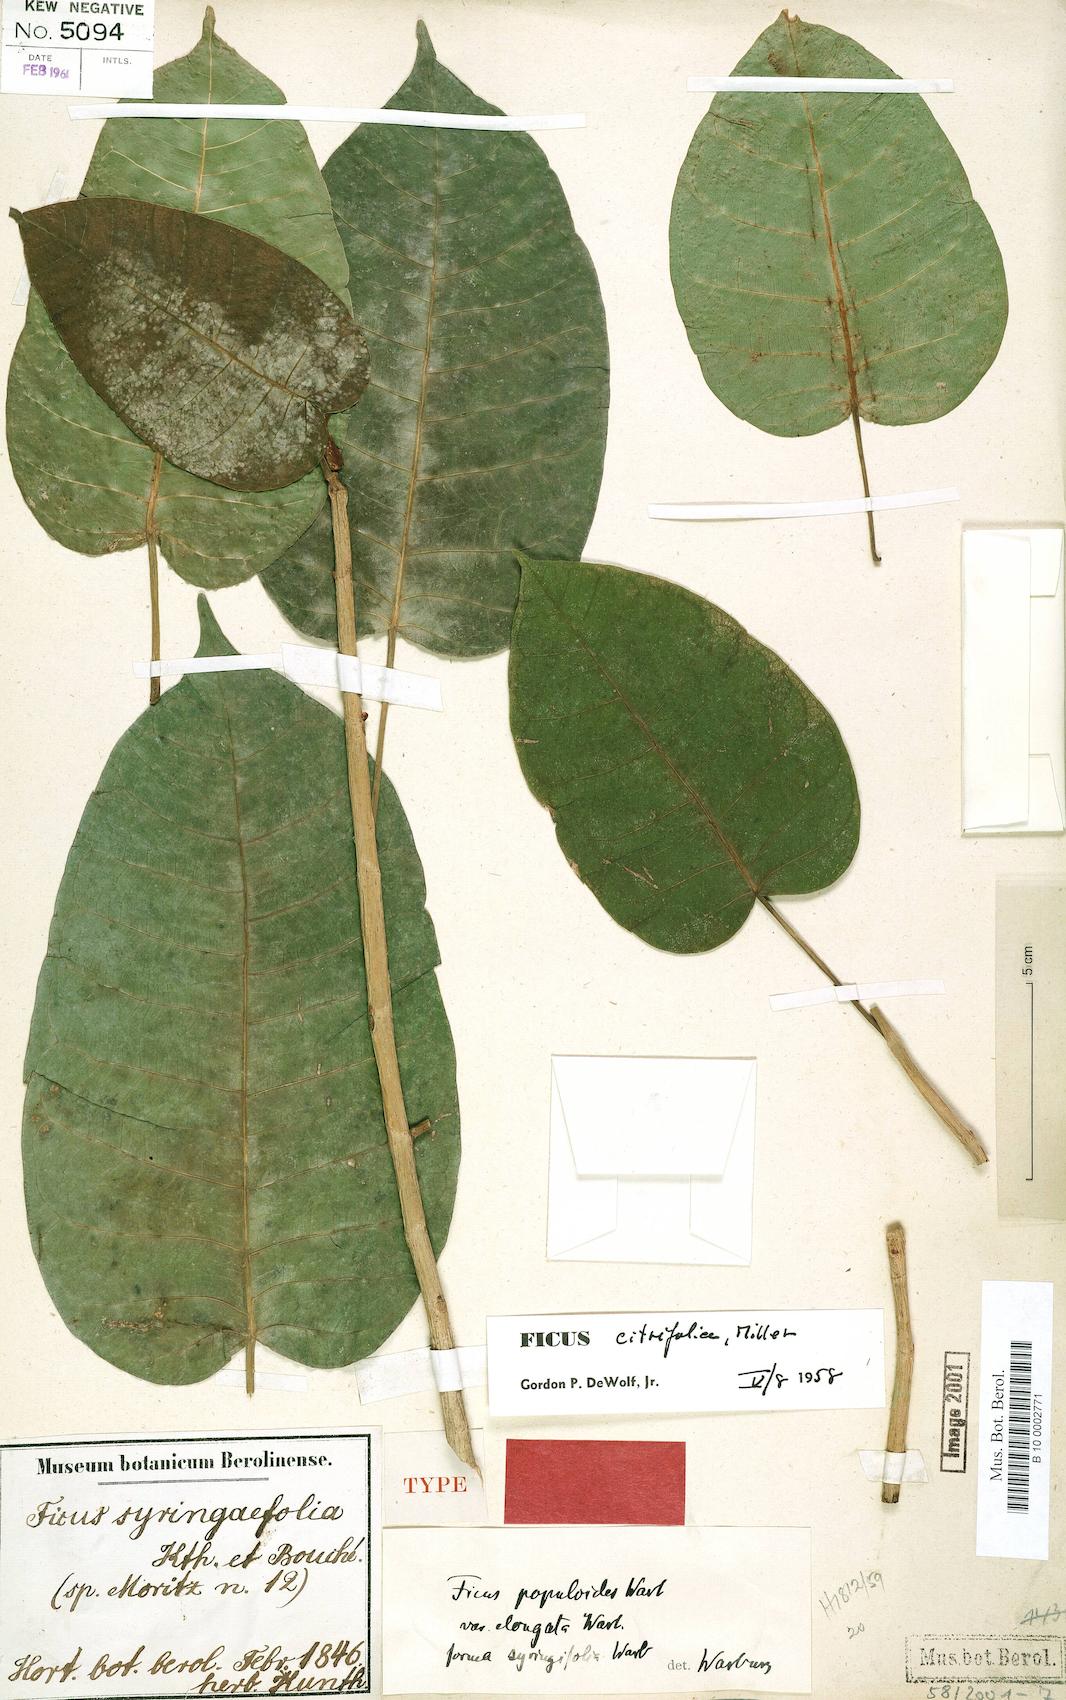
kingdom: Plantae
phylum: Tracheophyta
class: Magnoliopsida
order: Rosales
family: Moraceae
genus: Ficus
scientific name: Ficus citrifolia
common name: Strangler fig
